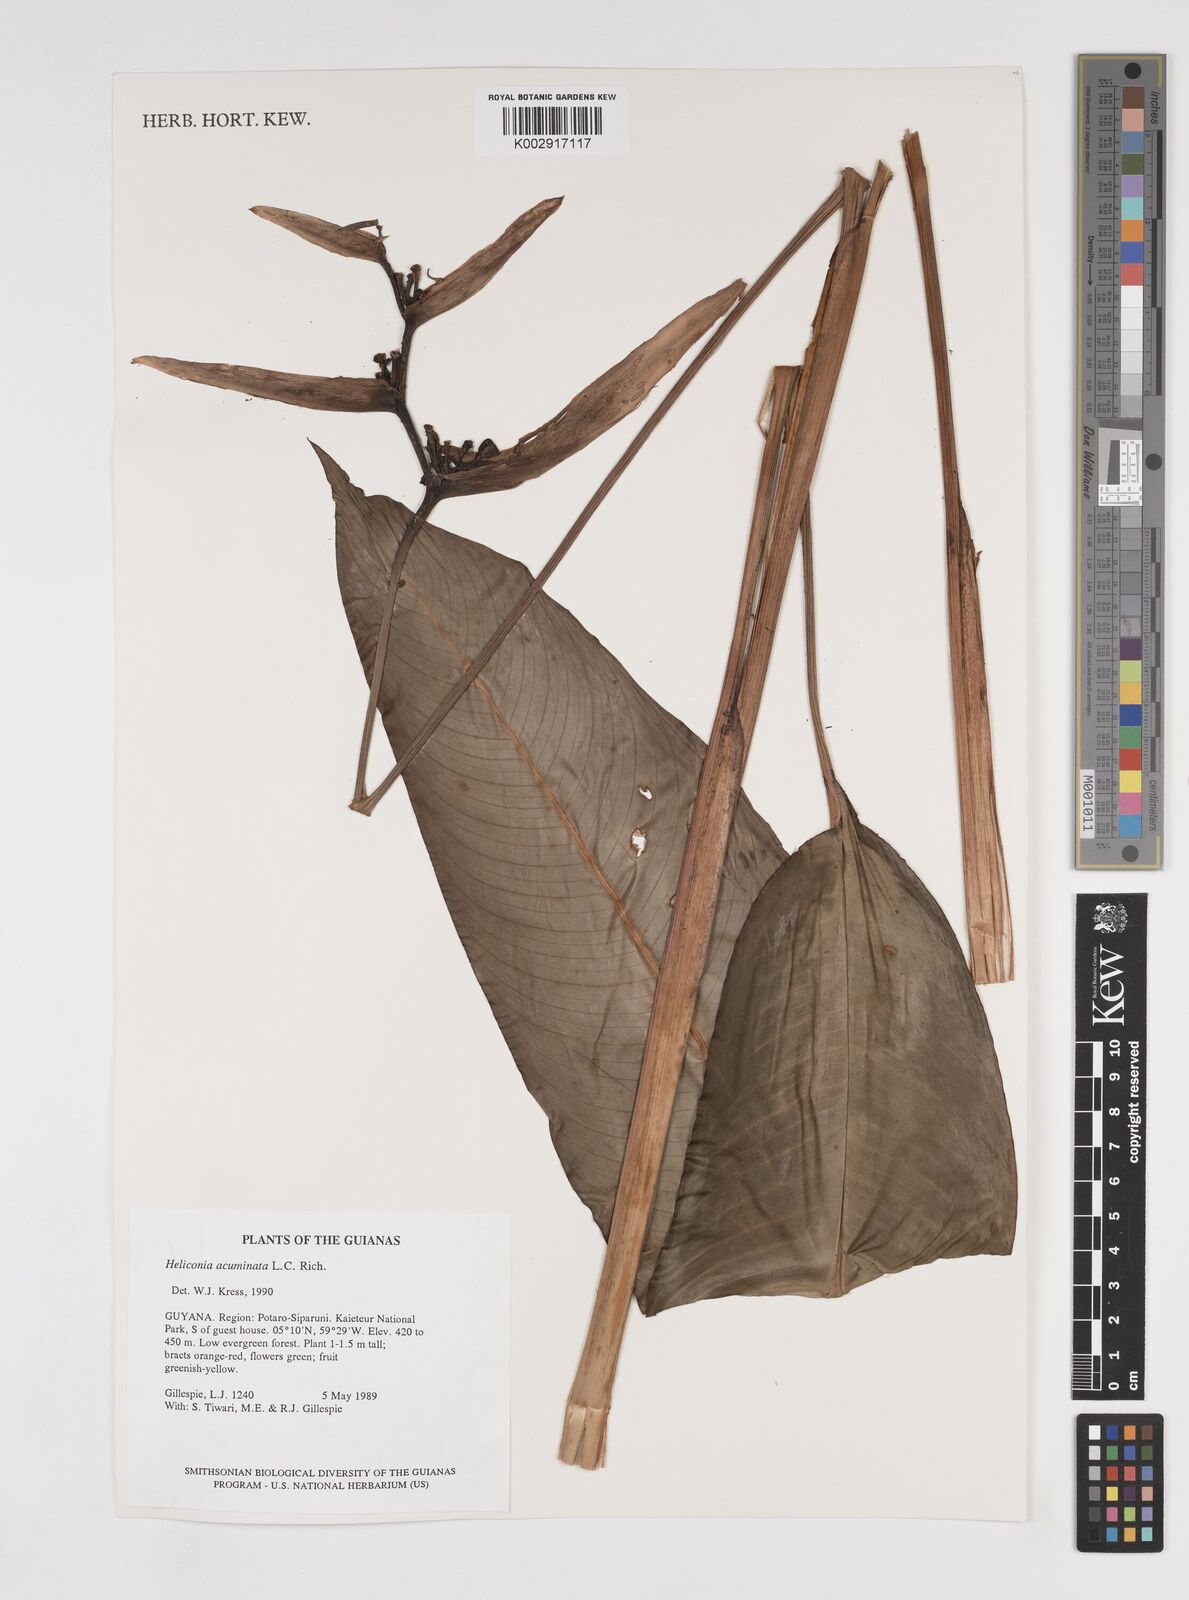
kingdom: Plantae
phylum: Tracheophyta
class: Liliopsida
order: Zingiberales
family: Heliconiaceae
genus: Heliconia
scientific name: Heliconia acuminata
